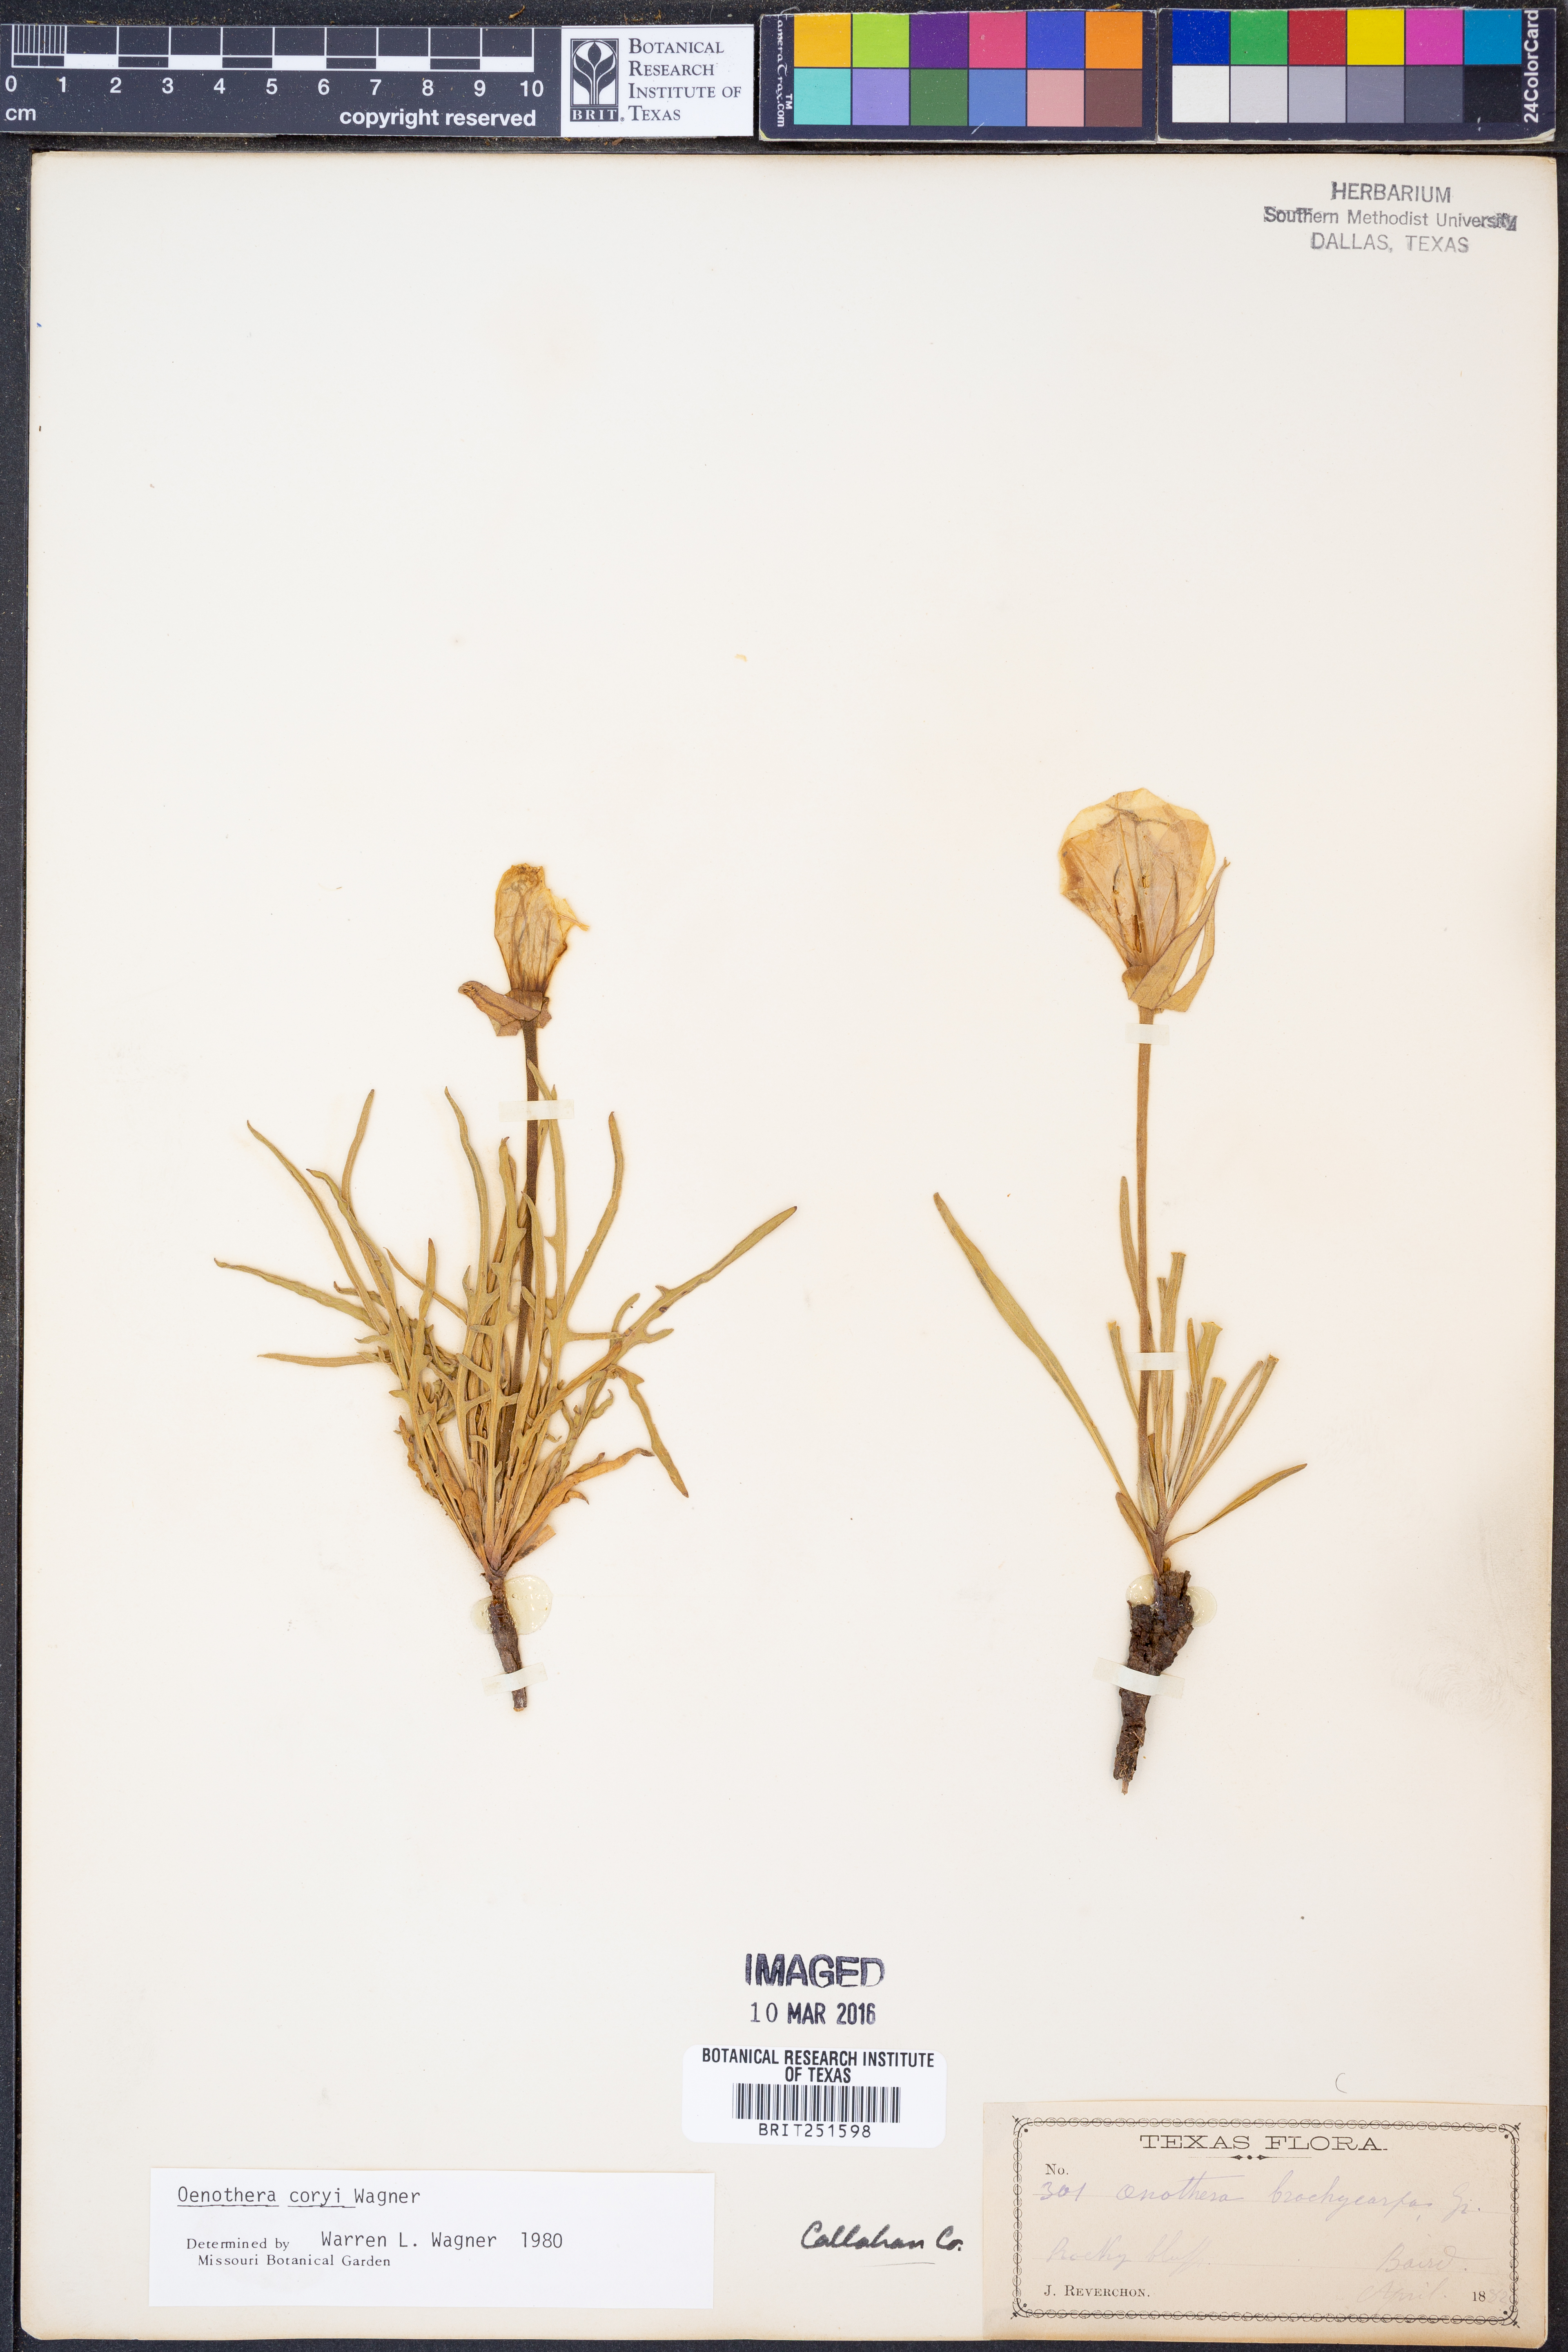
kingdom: Plantae
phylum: Tracheophyta
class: Magnoliopsida
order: Myrtales
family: Onagraceae
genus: Oenothera
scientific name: Oenothera coryi
